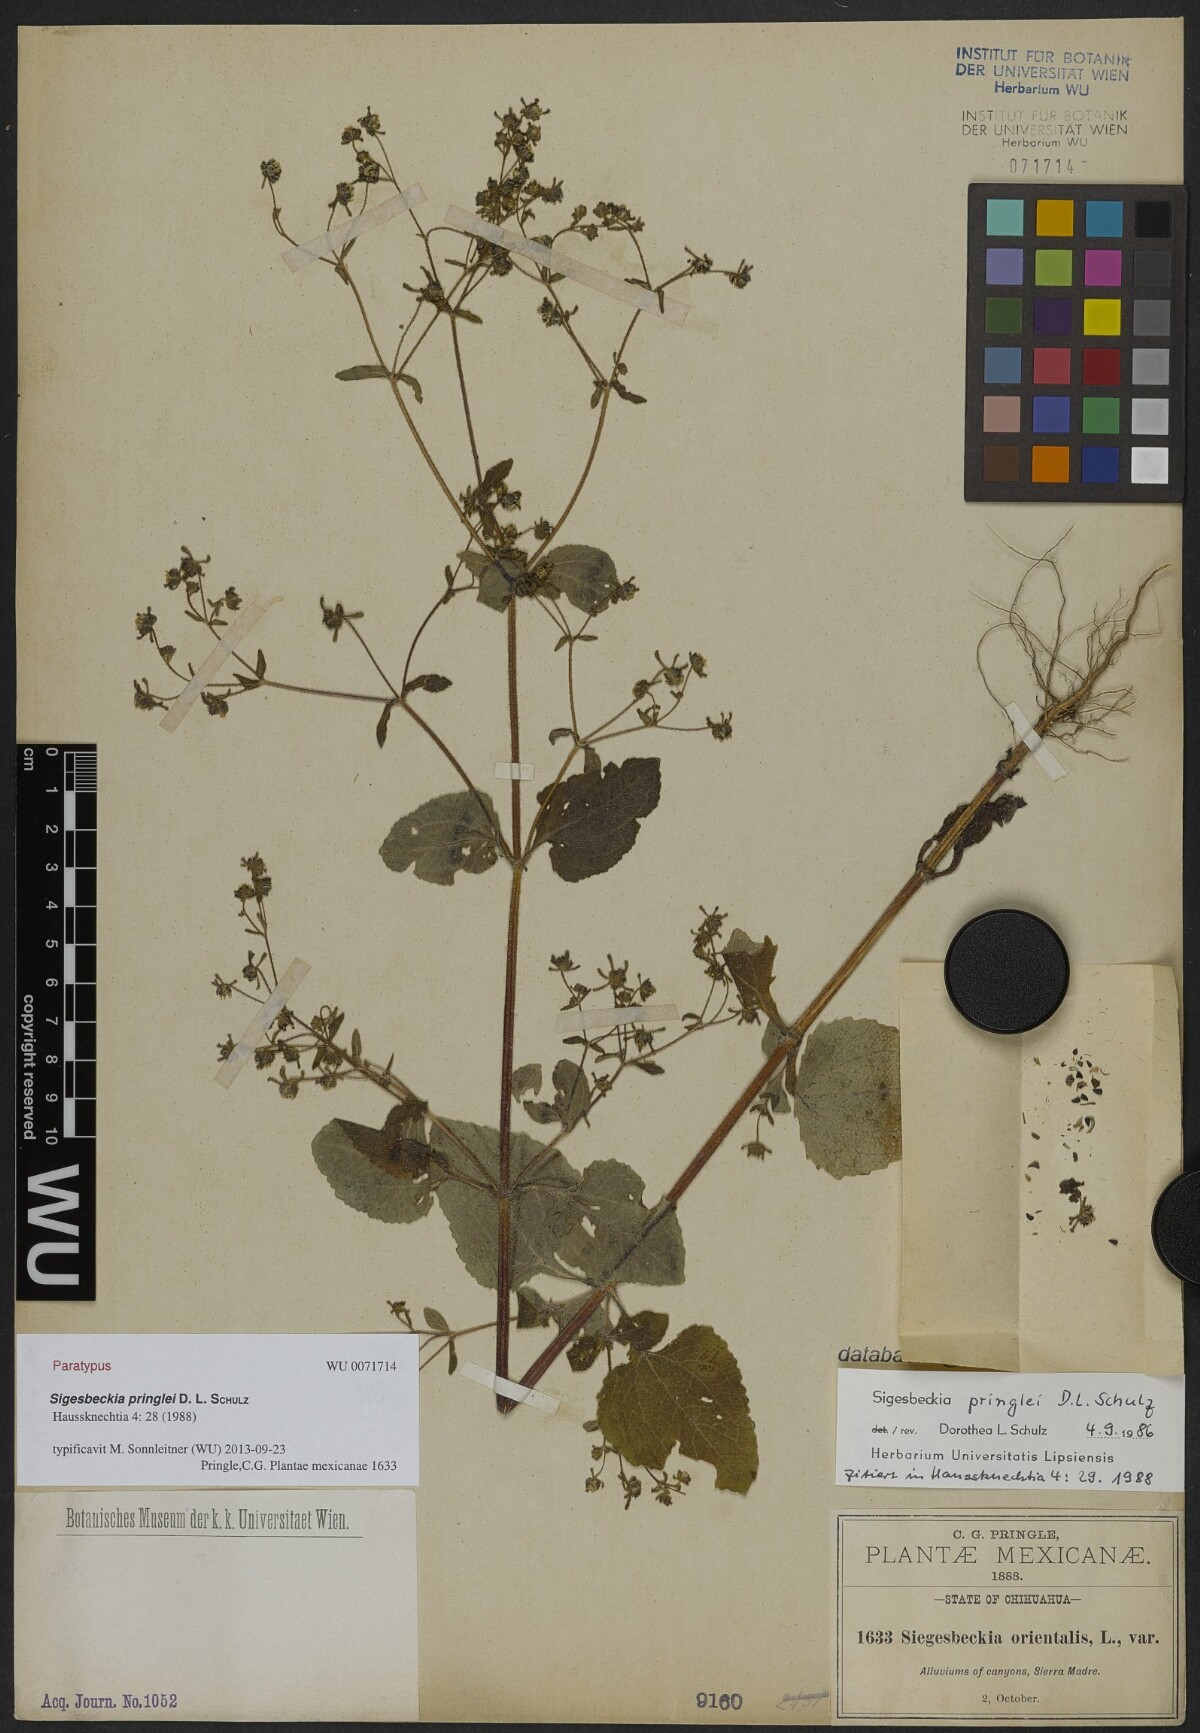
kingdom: Plantae
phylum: Tracheophyta
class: Magnoliopsida
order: Asterales
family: Asteraceae
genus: Sigesbeckia
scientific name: Sigesbeckia pringlei
